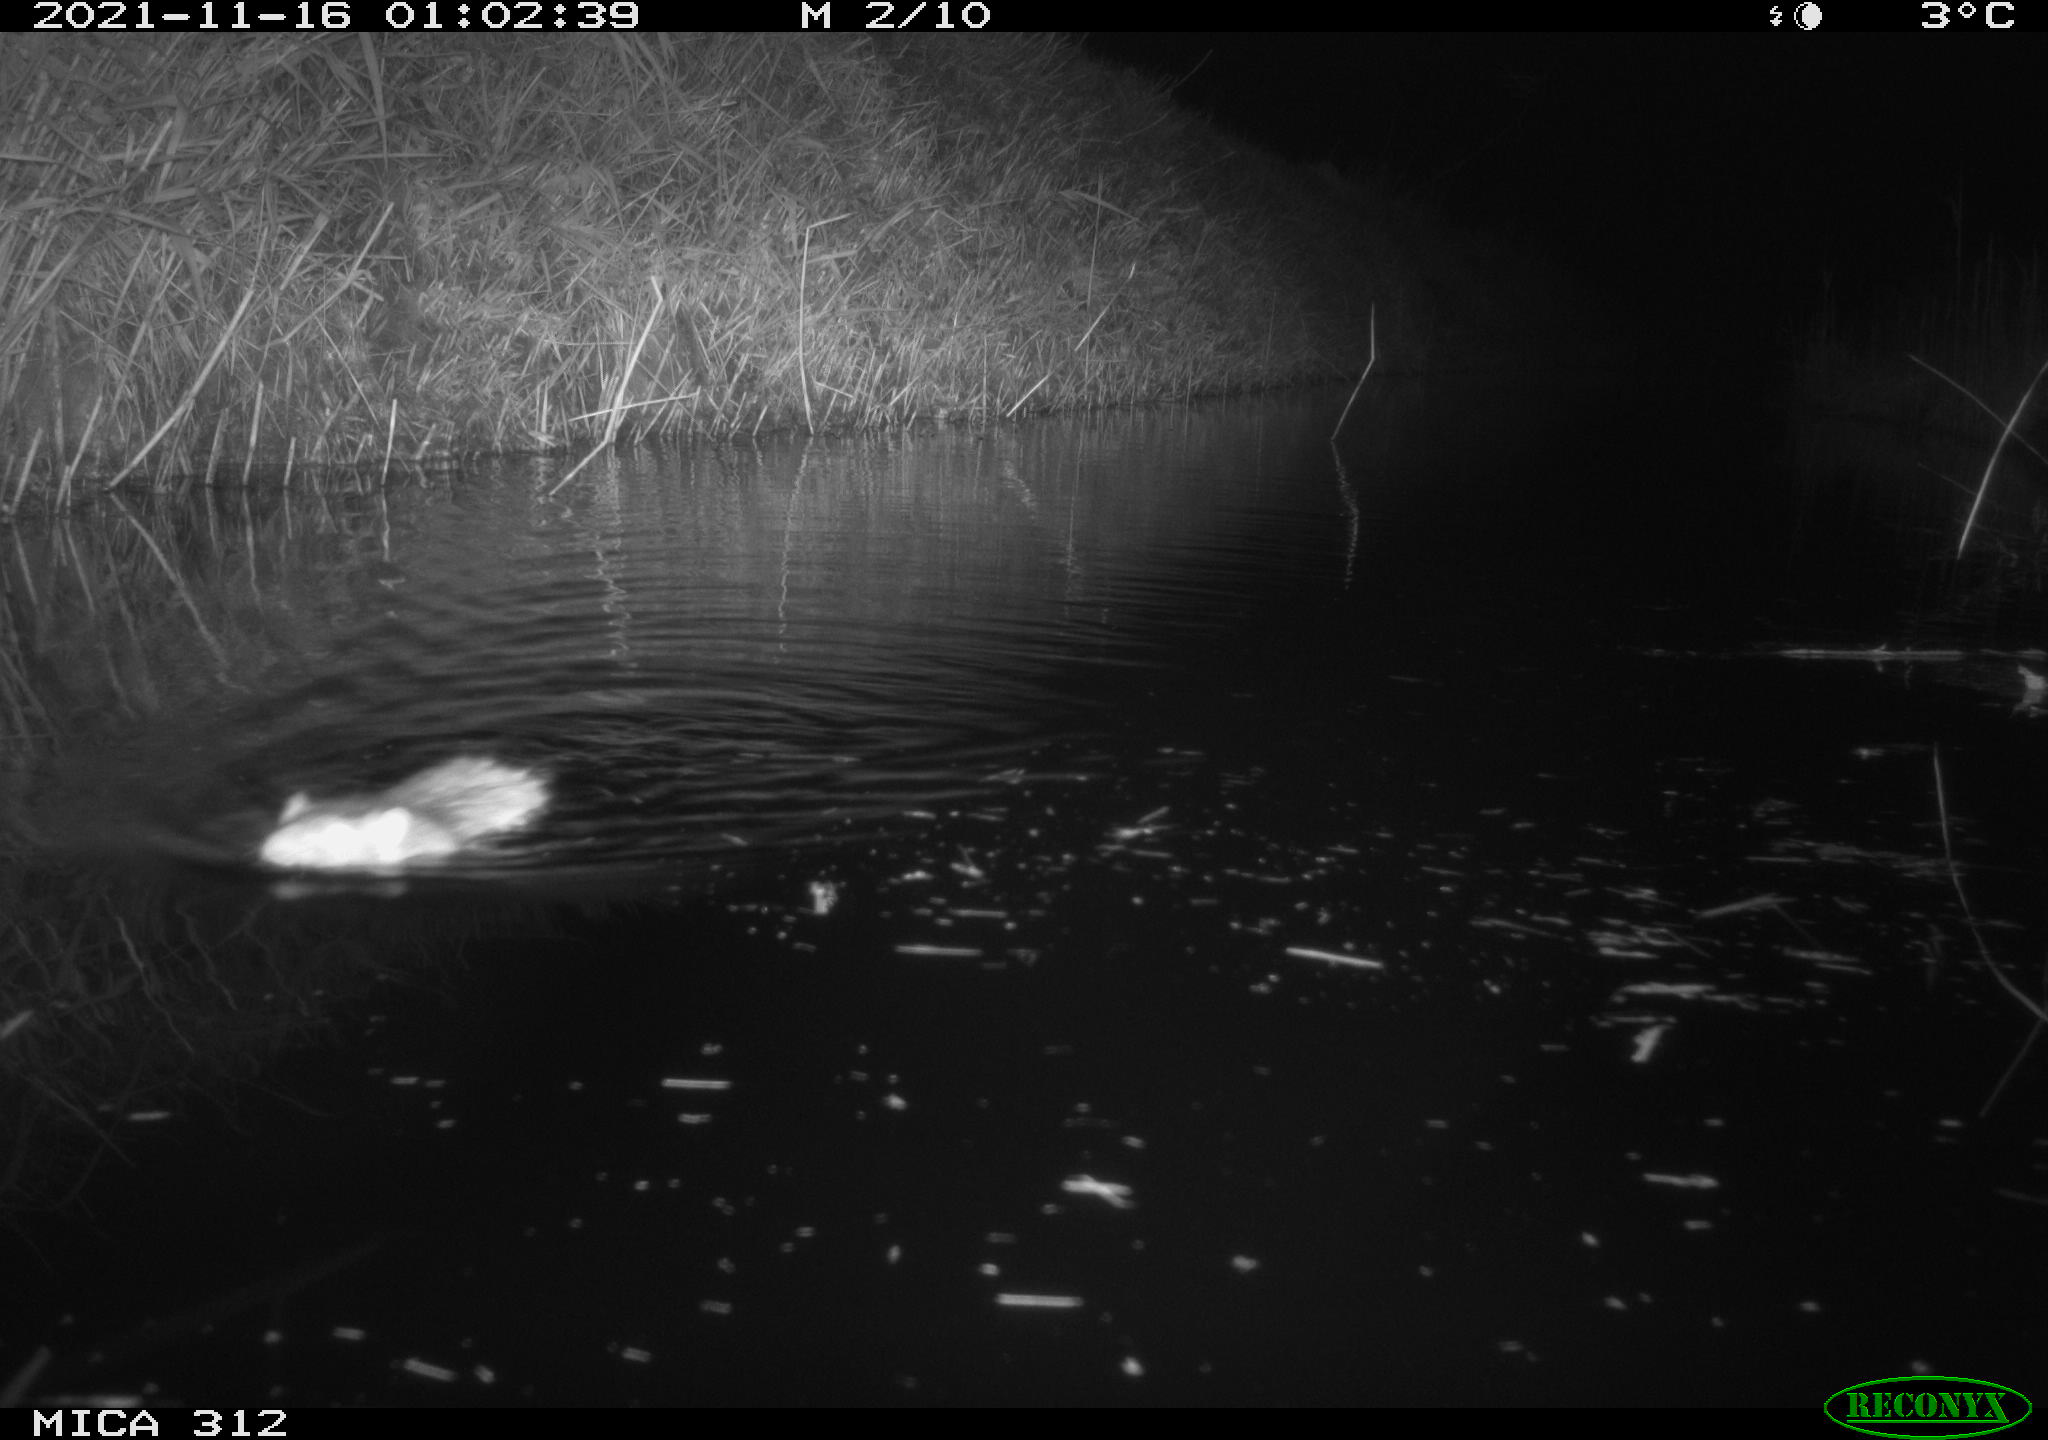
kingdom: Animalia
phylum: Chordata
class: Mammalia
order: Rodentia
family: Muridae
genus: Rattus
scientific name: Rattus norvegicus
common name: Brown rat
